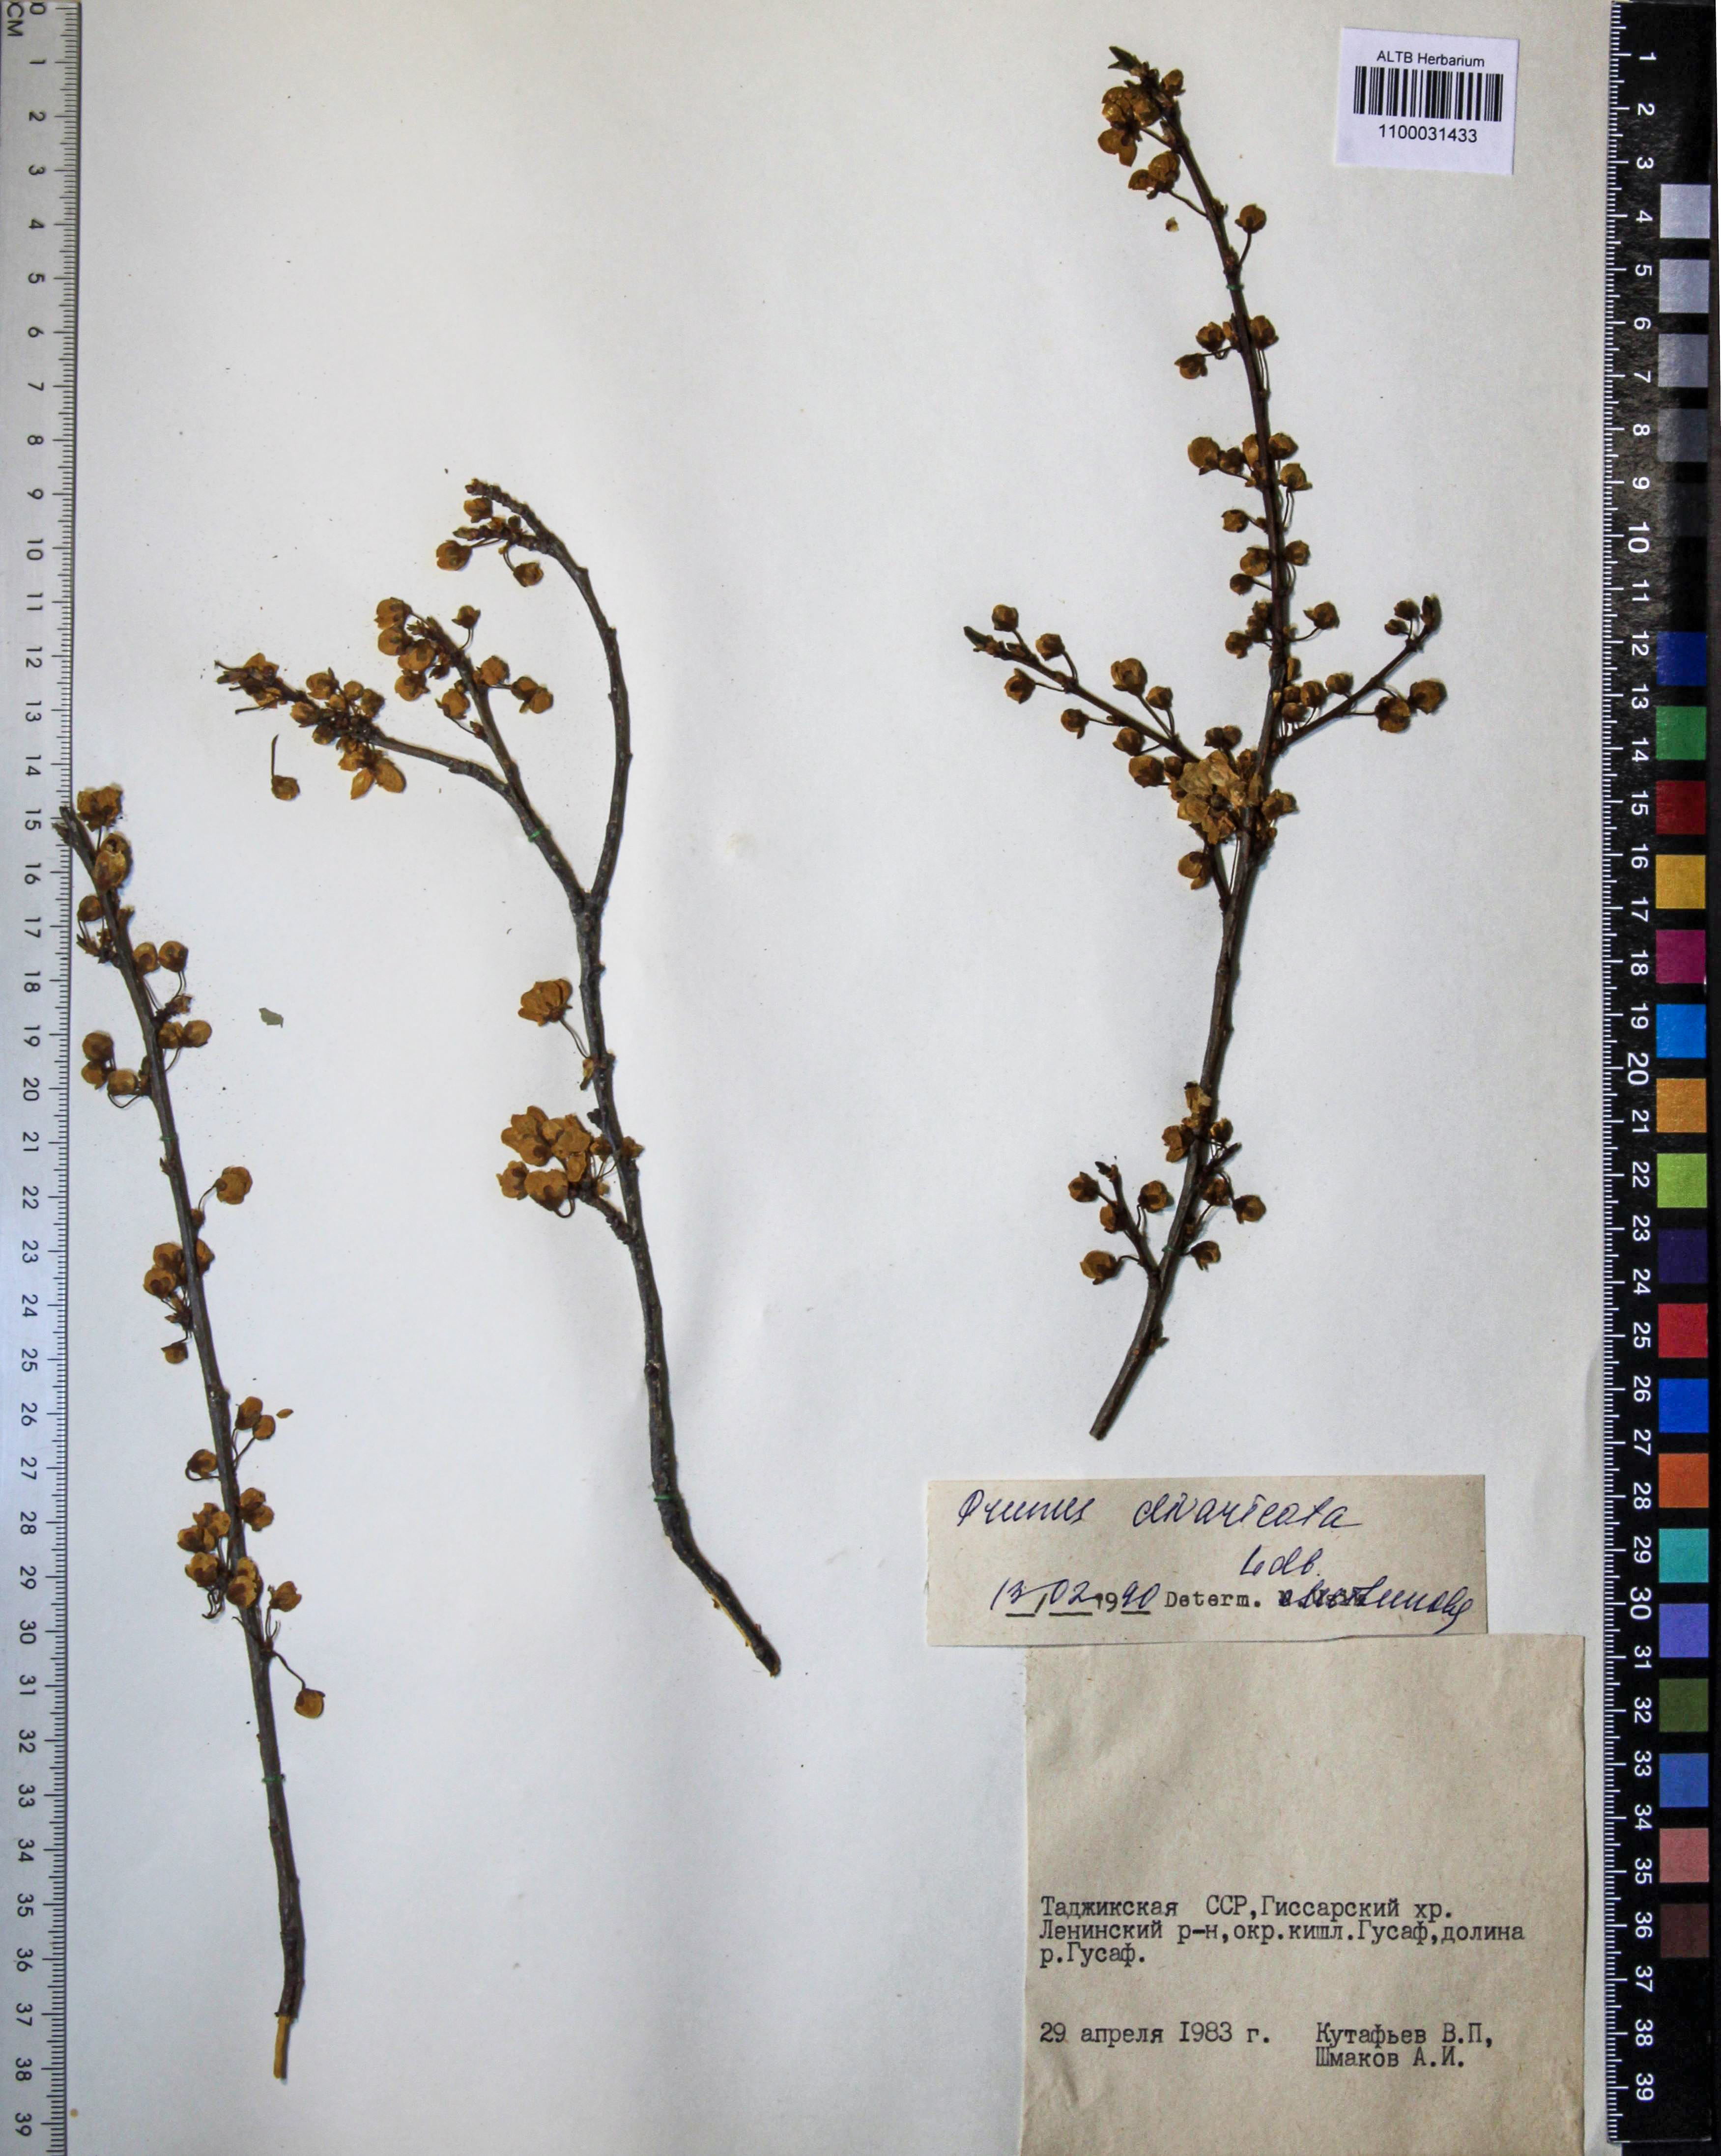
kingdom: Plantae
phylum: Tracheophyta
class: Magnoliopsida
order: Rosales
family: Rosaceae
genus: Prunus
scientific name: Prunus cerasifera
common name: Cherry plum
